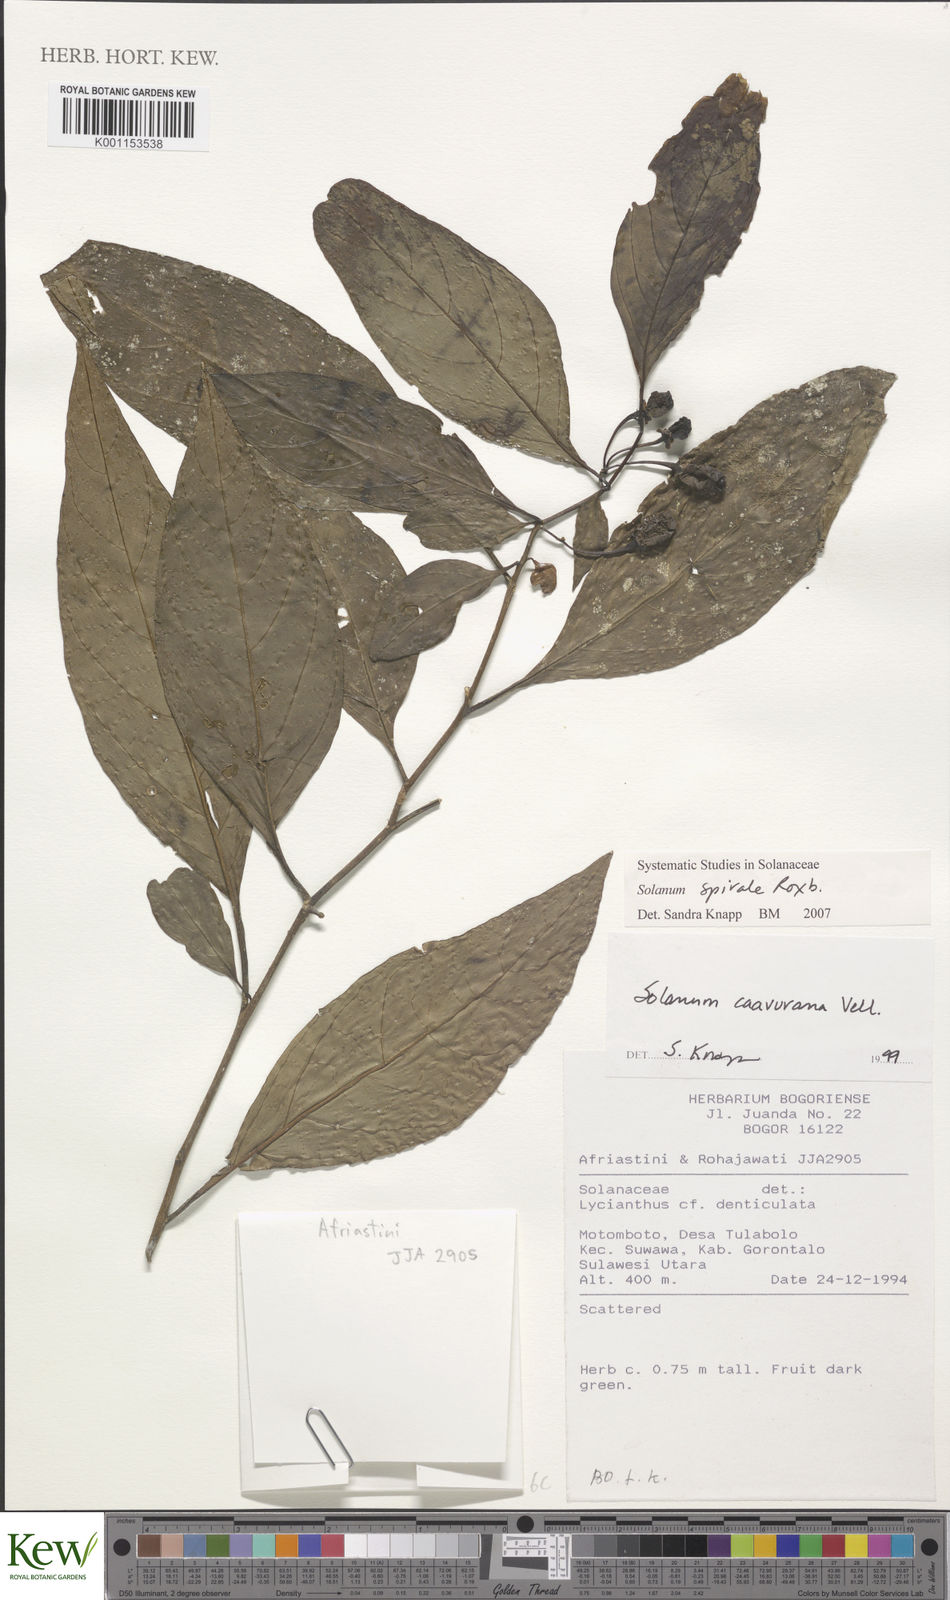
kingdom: Plantae
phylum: Tracheophyta
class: Magnoliopsida
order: Solanales
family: Solanaceae
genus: Solanum
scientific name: Solanum spirale
